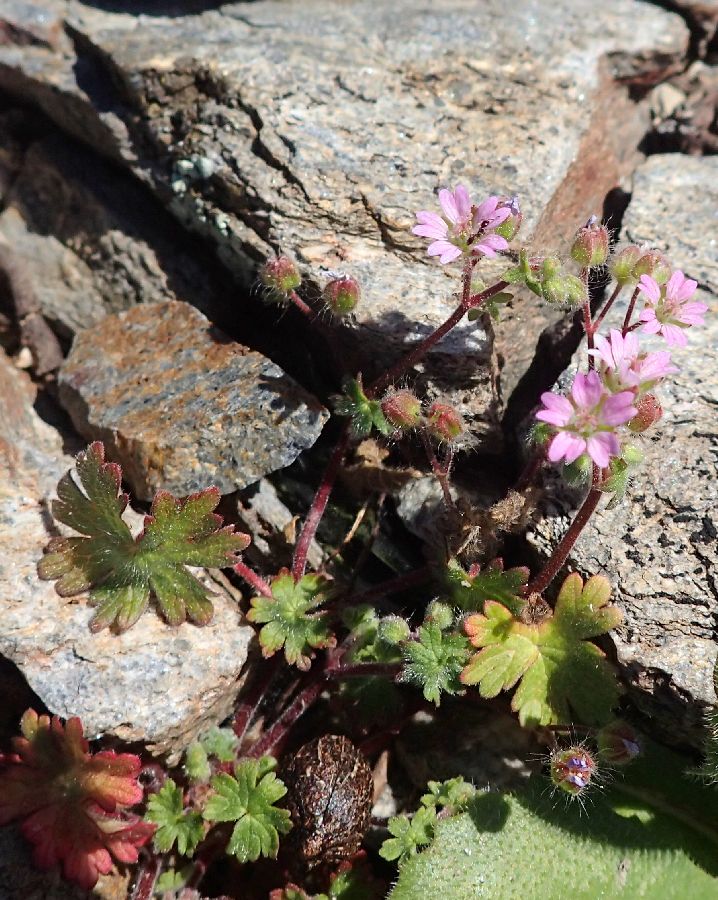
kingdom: Plantae
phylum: Tracheophyta
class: Magnoliopsida
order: Geraniales
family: Geraniaceae
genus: Geranium
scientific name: Geranium molle
